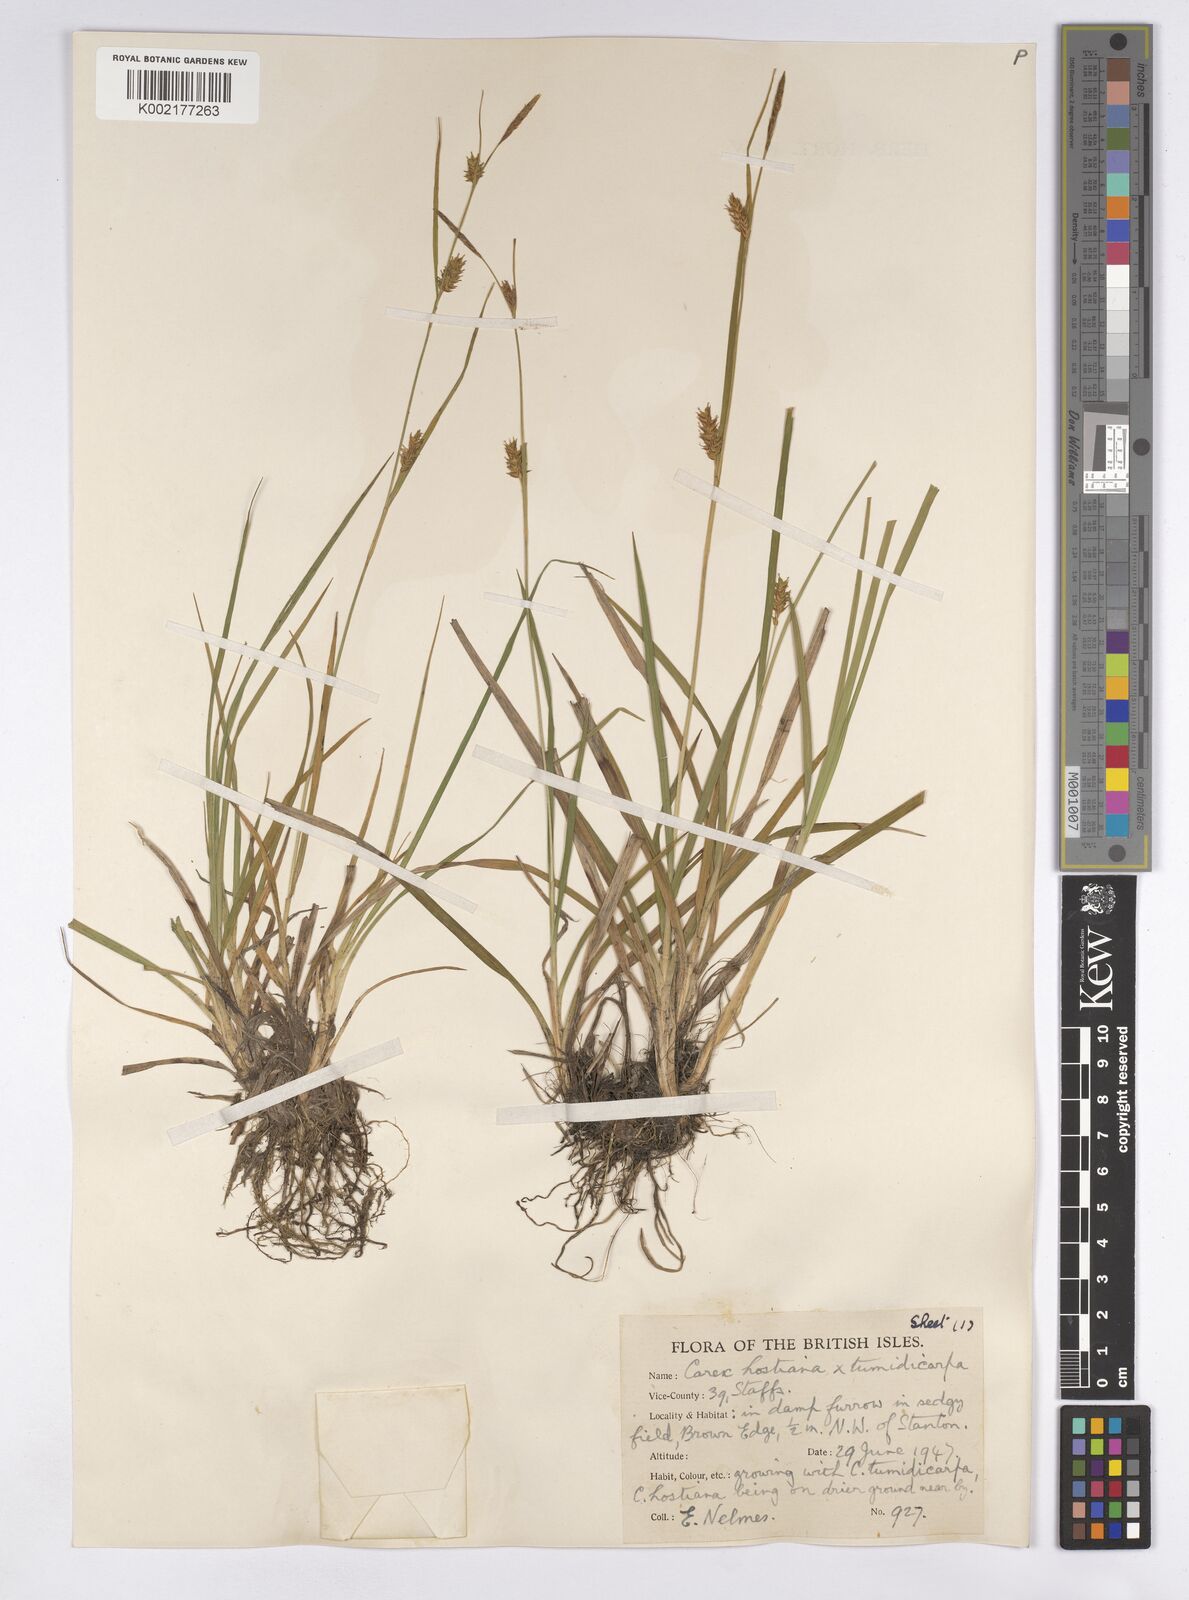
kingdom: Plantae
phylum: Tracheophyta
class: Liliopsida
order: Poales
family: Cyperaceae
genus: Carex
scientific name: Carex hostiana
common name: Tawny sedge
